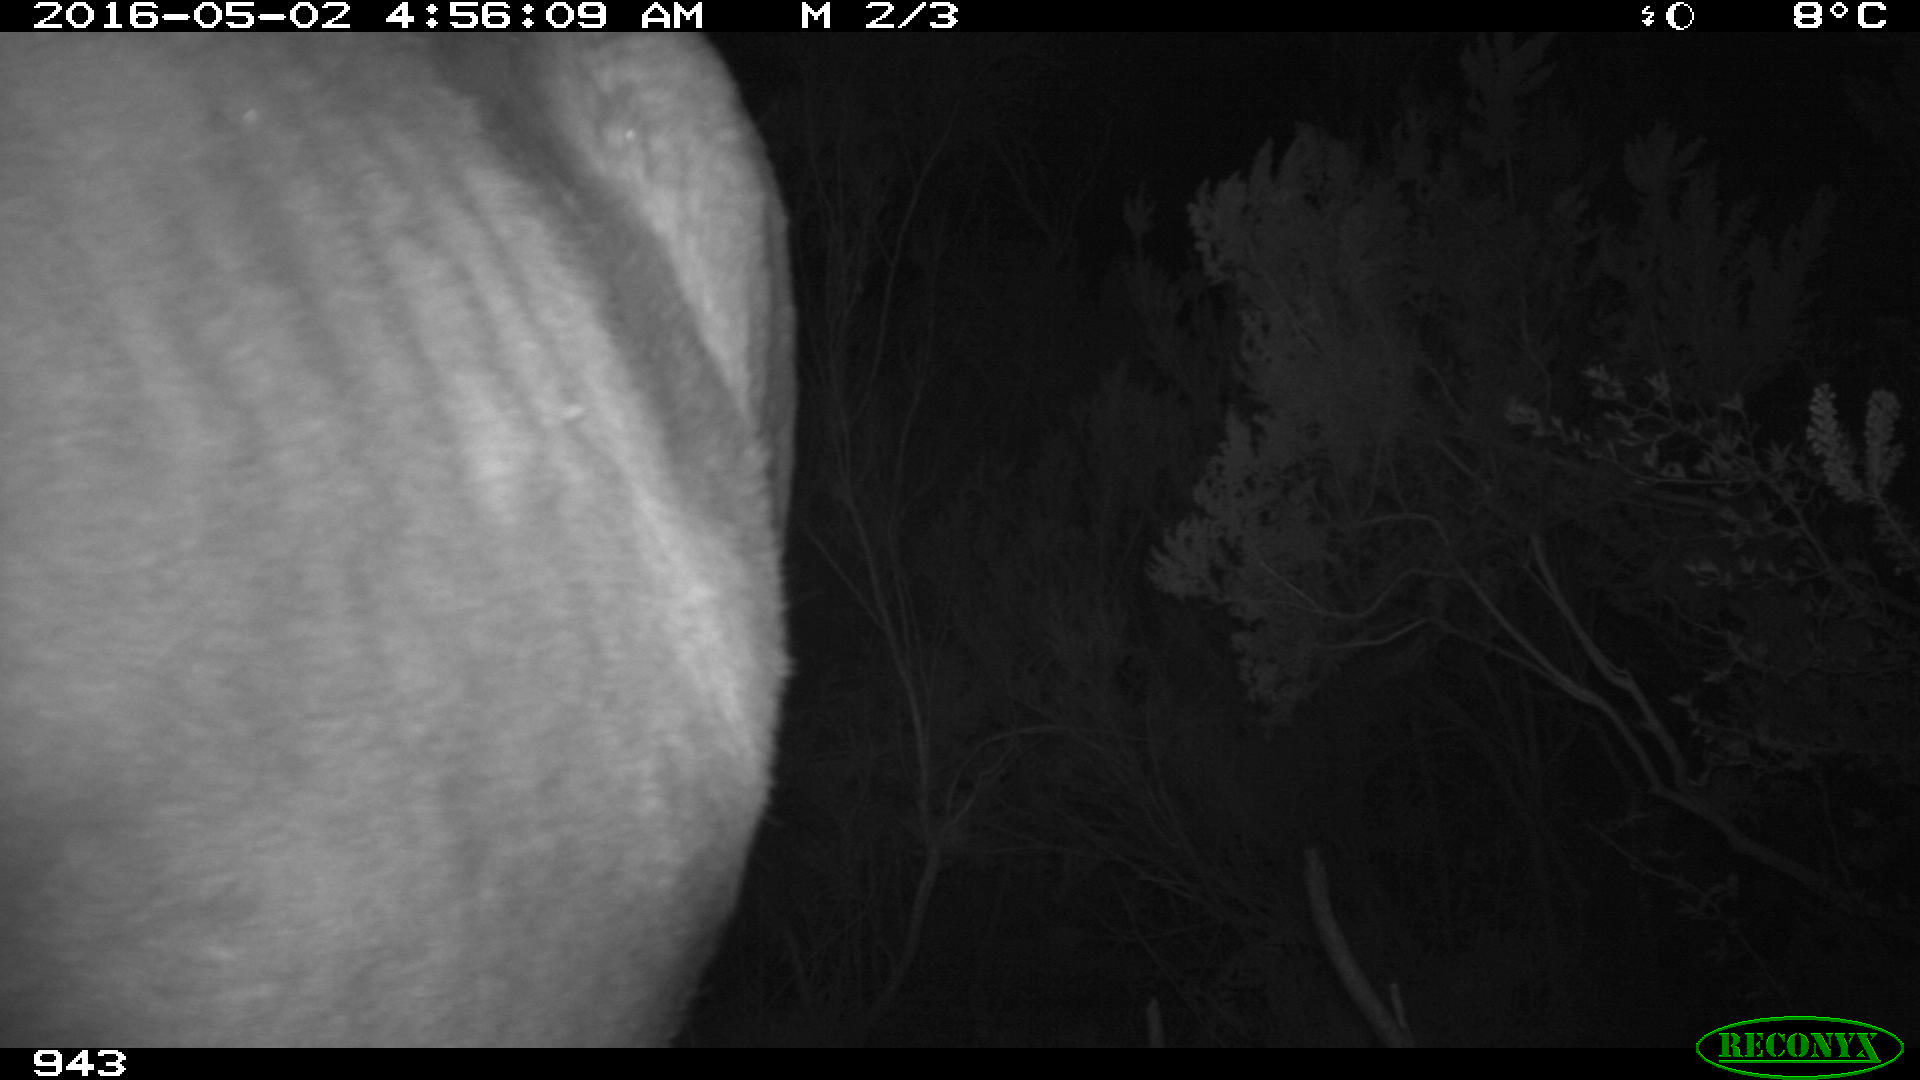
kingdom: Animalia
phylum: Chordata
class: Mammalia
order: Perissodactyla
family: Equidae
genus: Equus
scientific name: Equus caballus
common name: Horse
